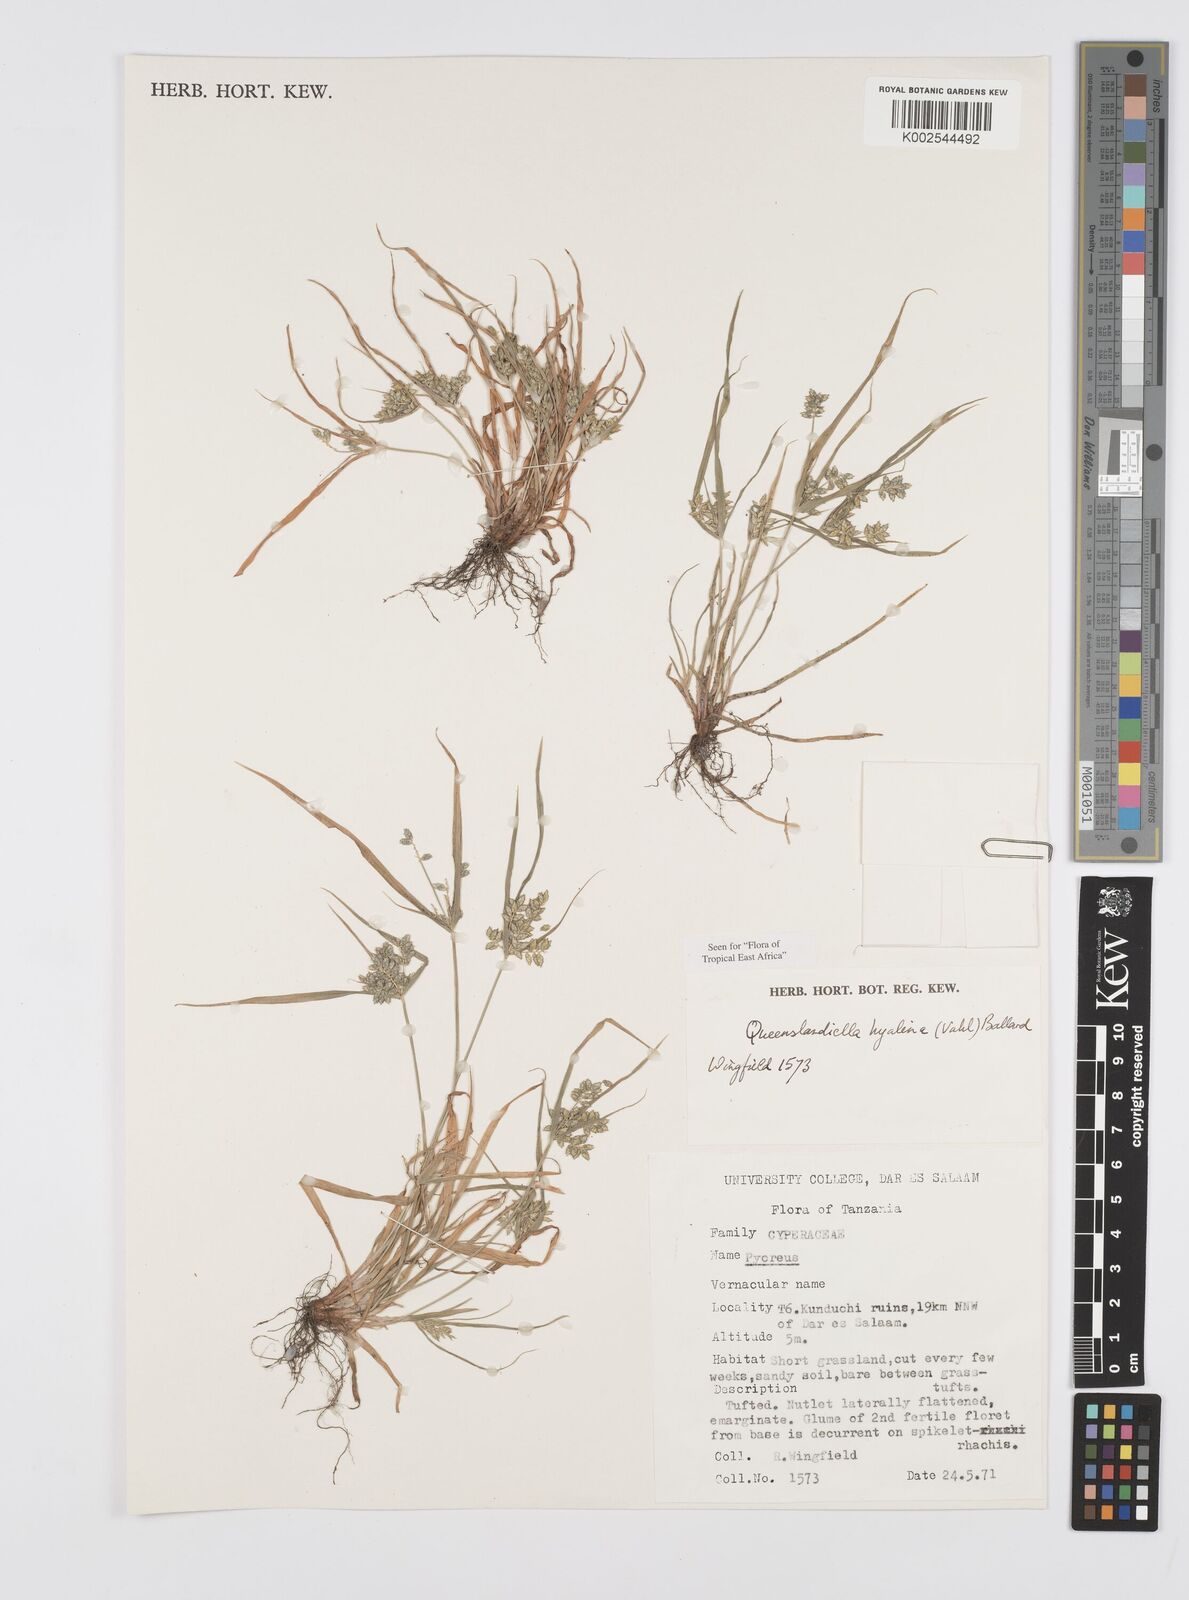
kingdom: Plantae
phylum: Tracheophyta
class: Liliopsida
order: Poales
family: Cyperaceae
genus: Cyperus
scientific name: Cyperus hyalinus
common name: Queensland sedge
